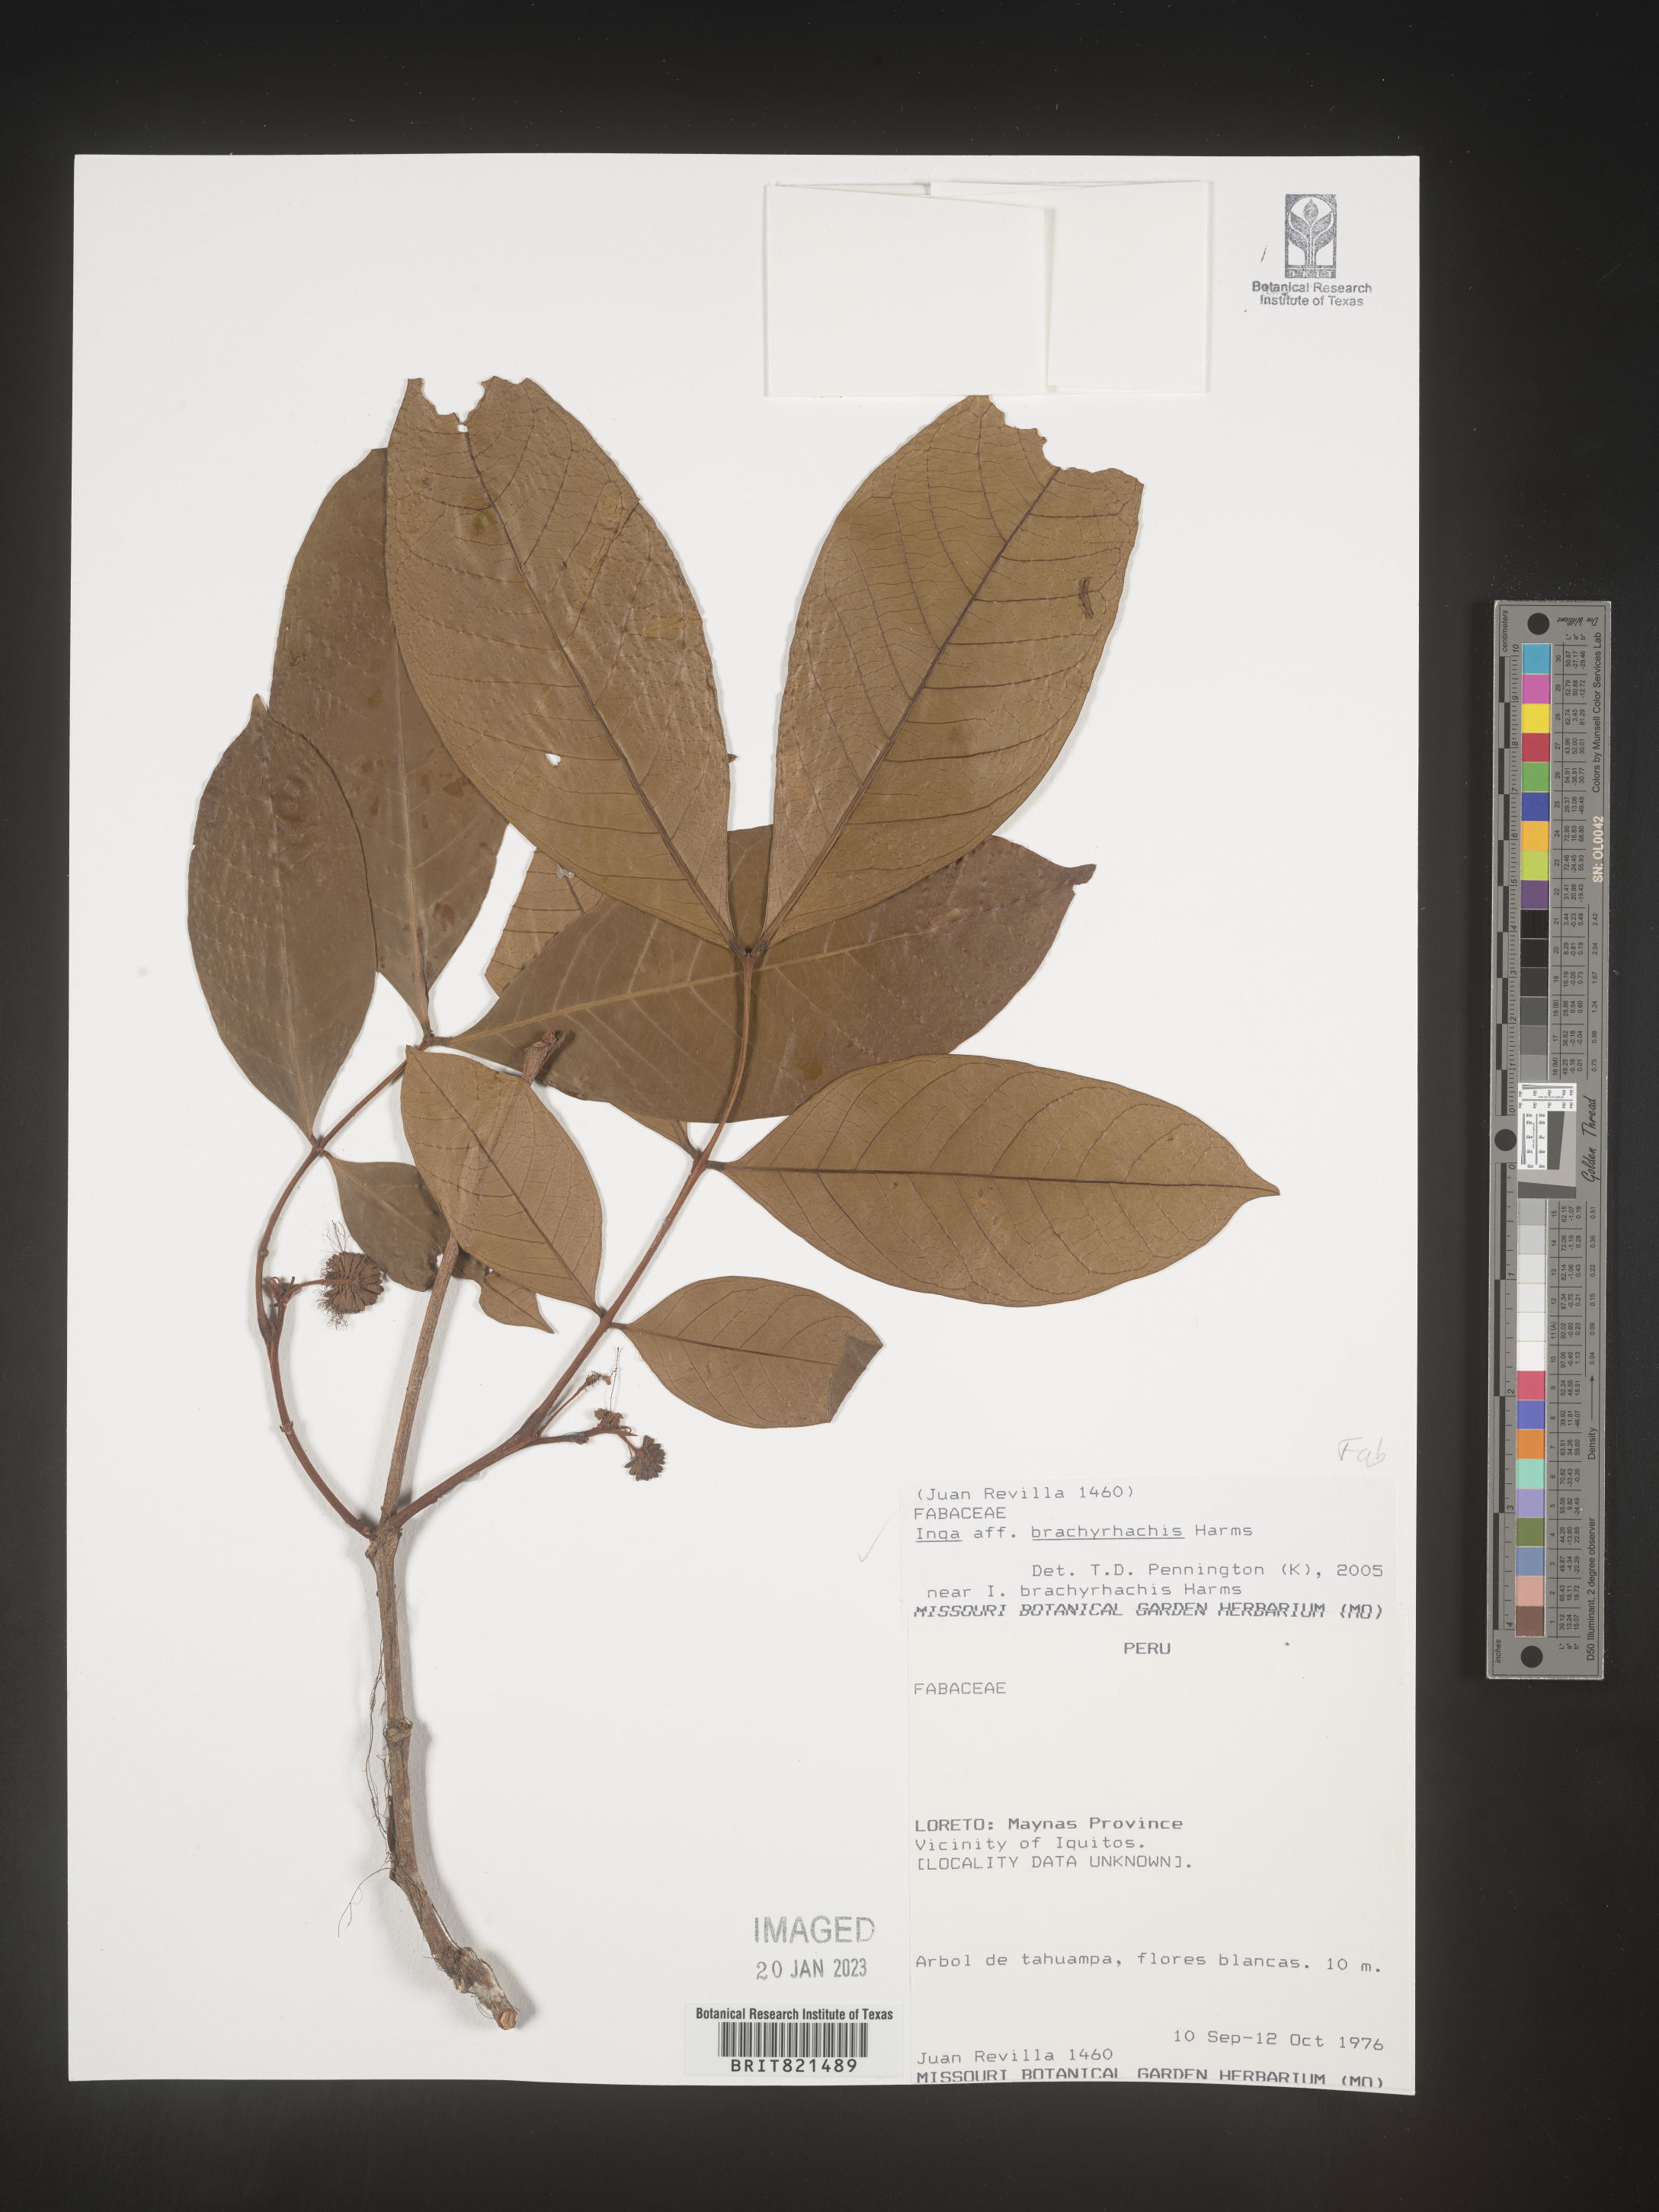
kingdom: Plantae
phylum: Tracheophyta
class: Magnoliopsida
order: Fabales
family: Fabaceae
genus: Inga
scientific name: Inga
